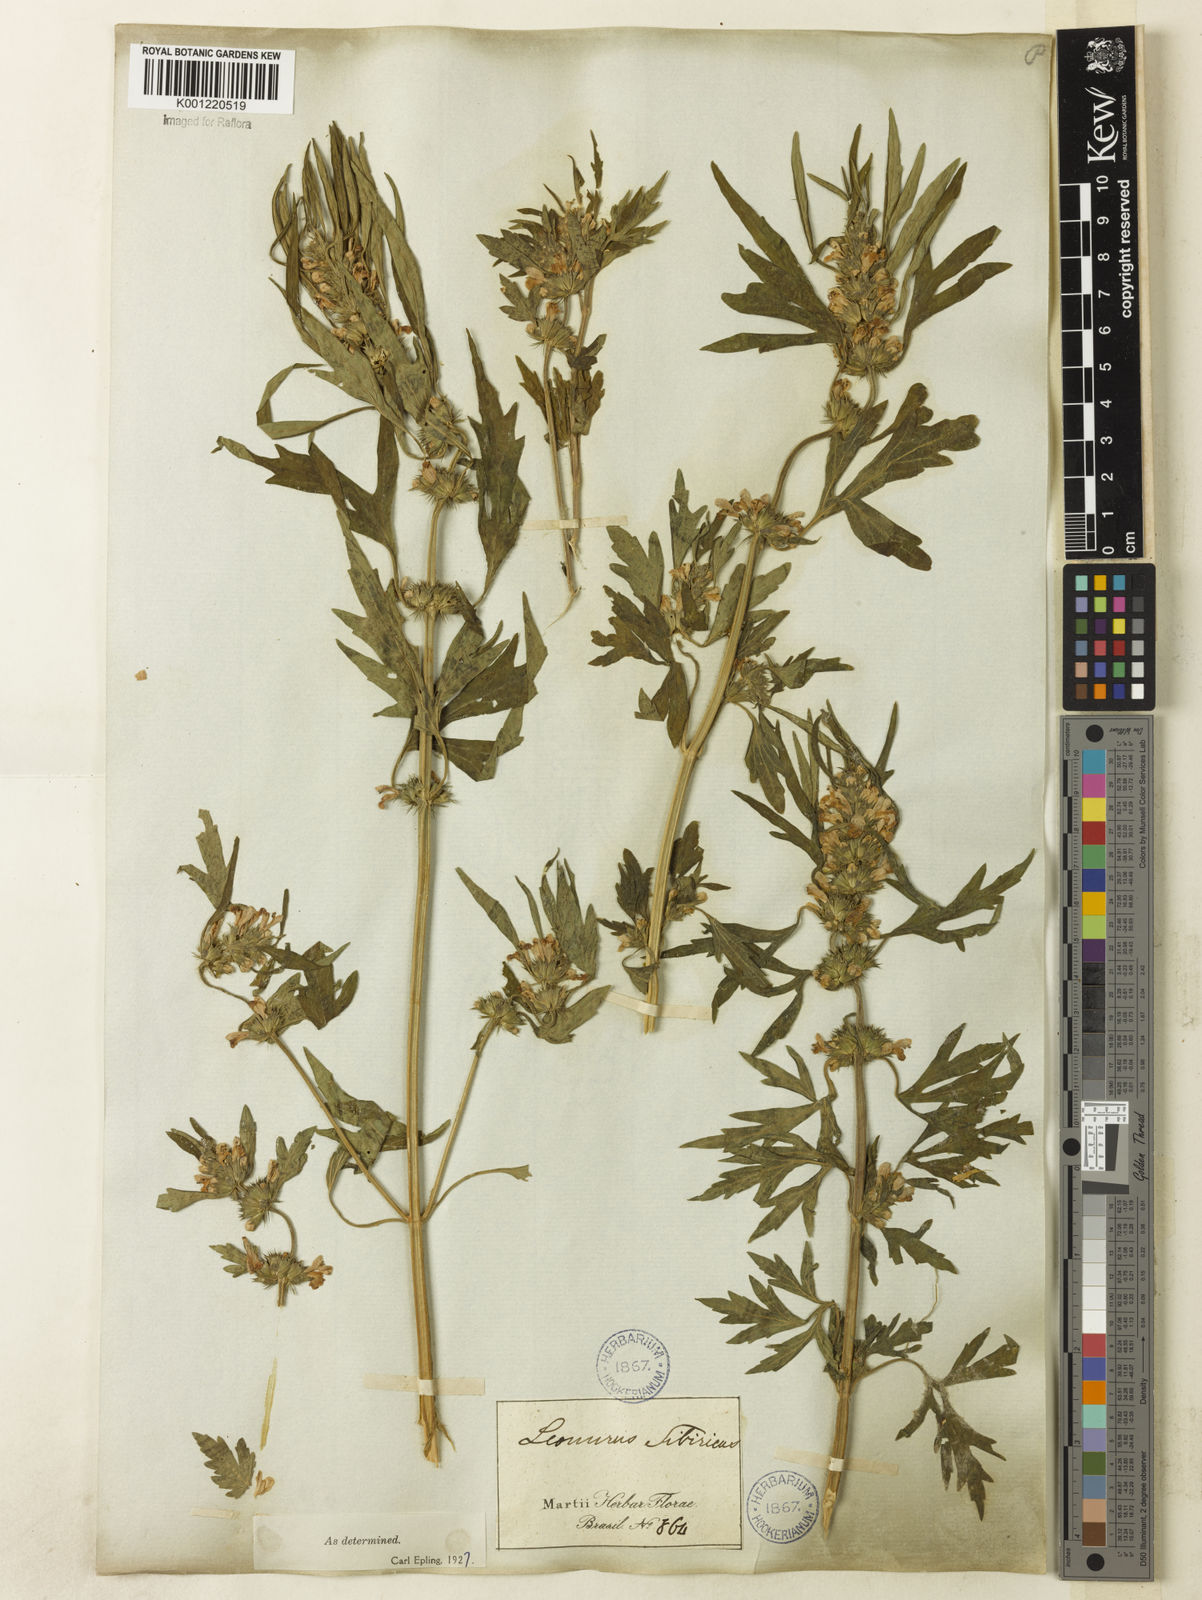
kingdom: Plantae
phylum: Tracheophyta
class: Magnoliopsida
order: Lamiales
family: Lamiaceae
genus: Leonurus
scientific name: Leonurus japonicus
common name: Honeyweed
